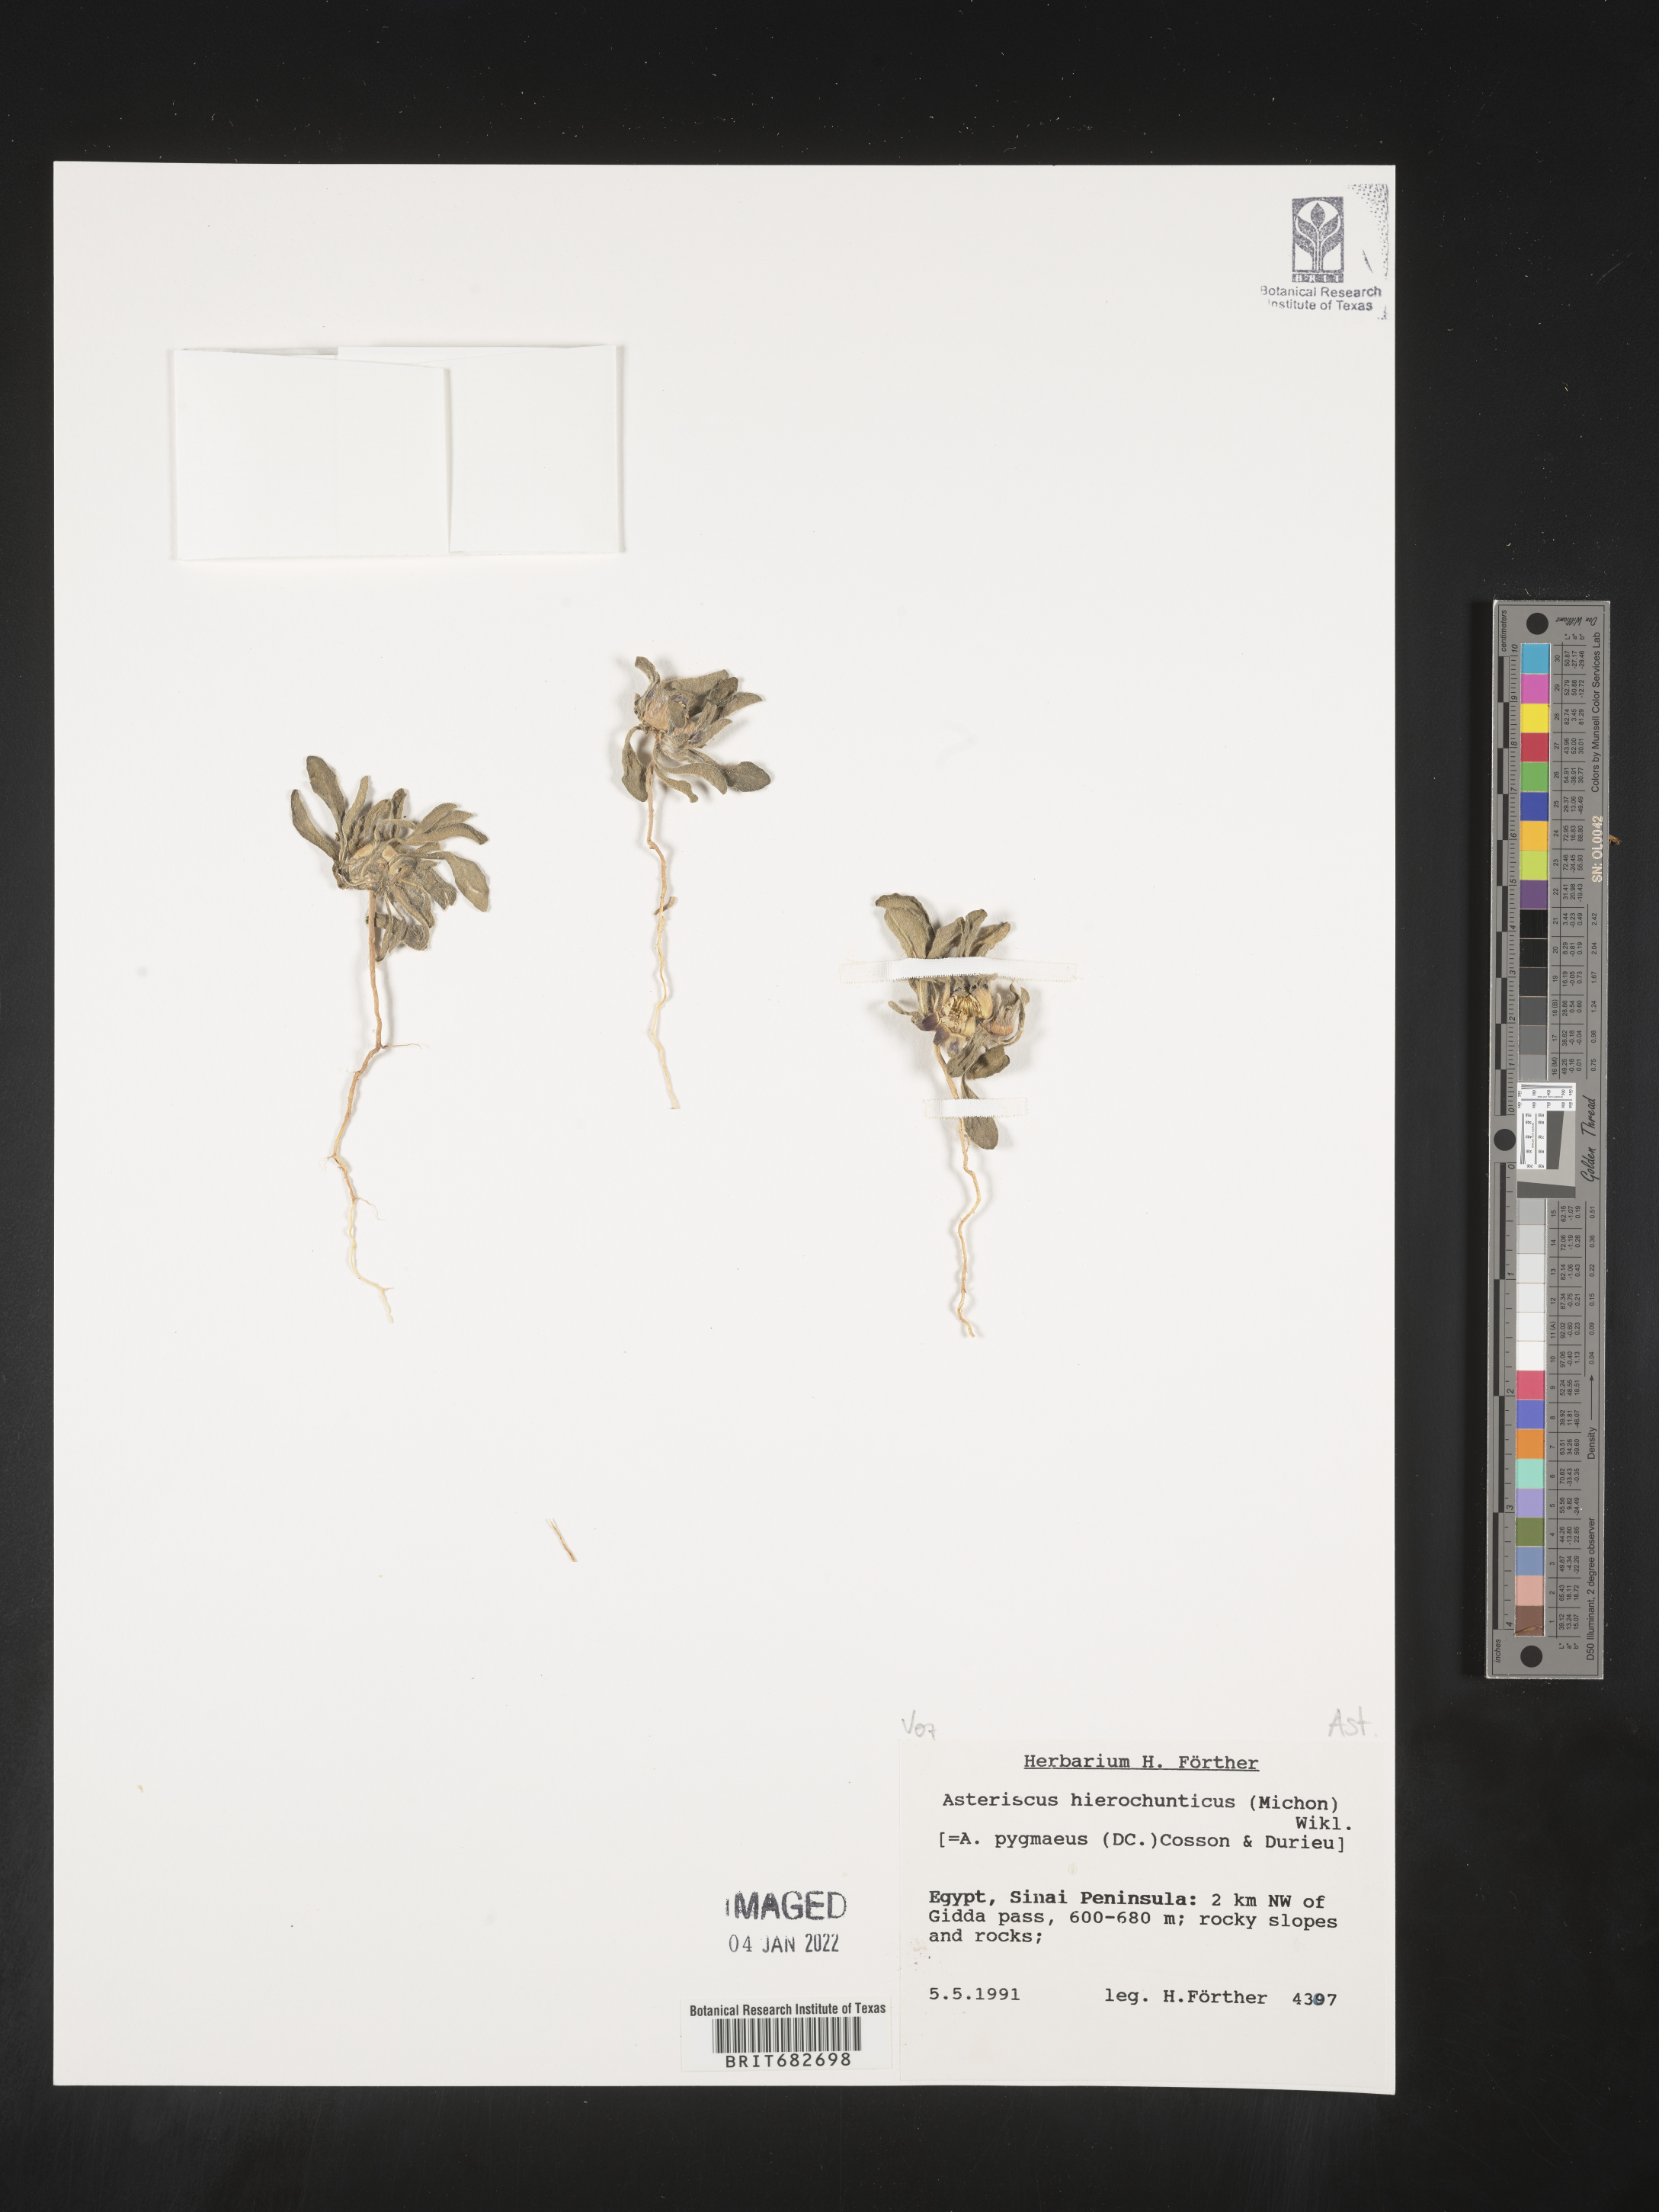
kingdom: Plantae
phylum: Tracheophyta
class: Magnoliopsida
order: Asterales
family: Asteraceae
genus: Asteriscus
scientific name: Asteriscus
